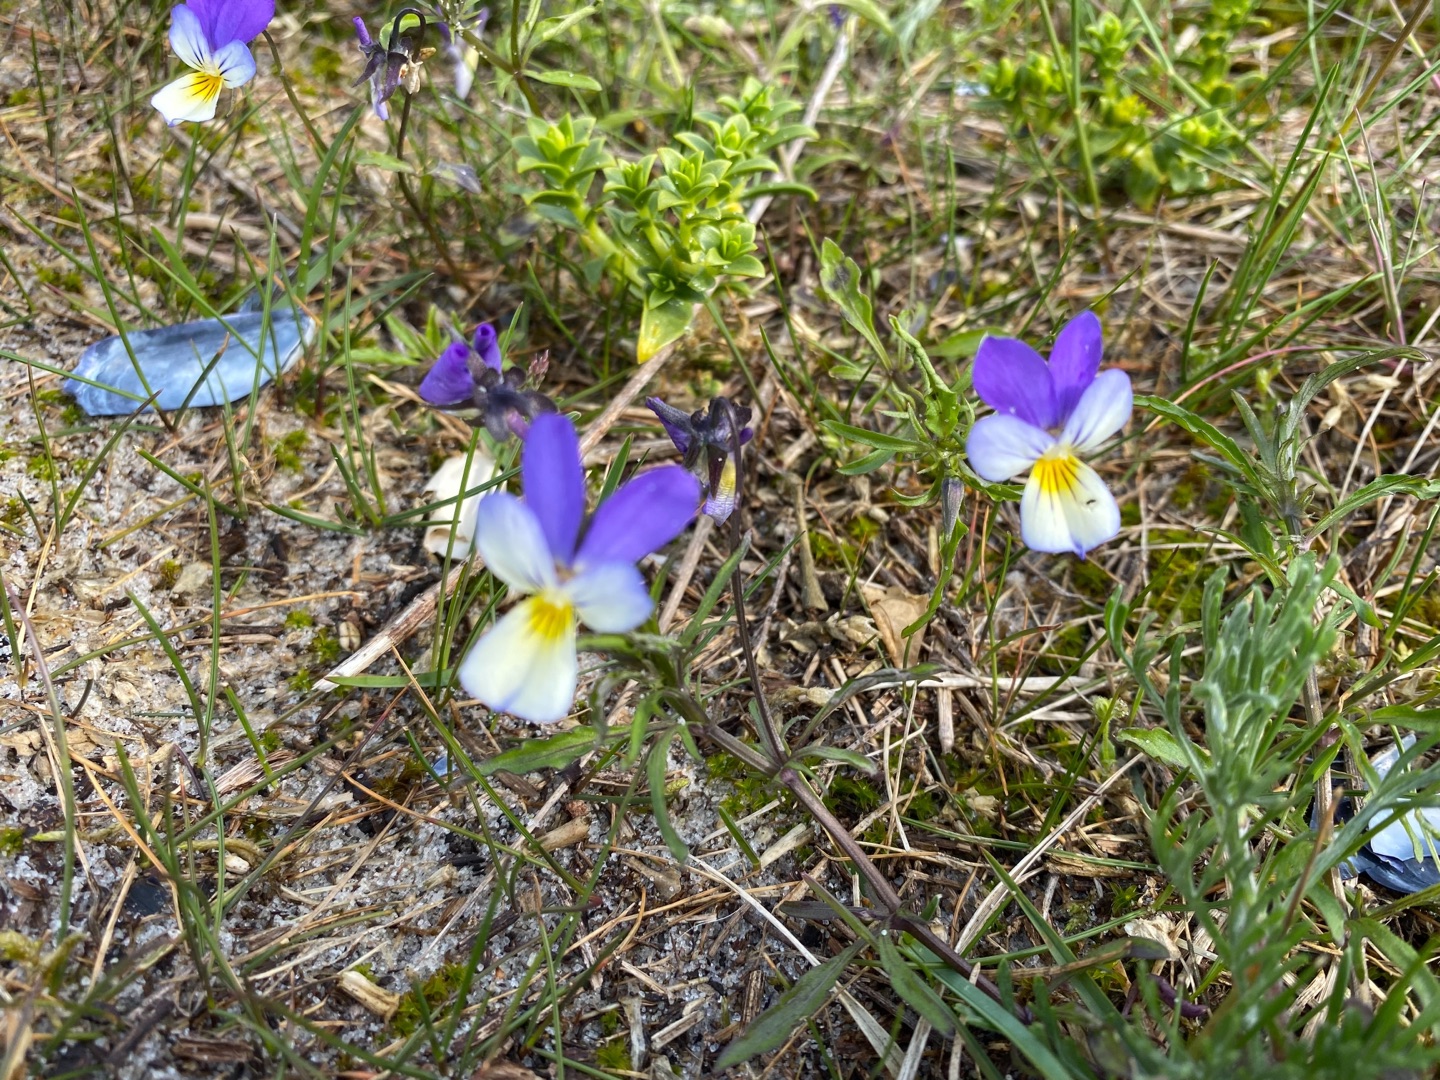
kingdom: Plantae
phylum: Tracheophyta
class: Magnoliopsida
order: Malpighiales
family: Violaceae
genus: Viola
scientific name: Viola tricolor
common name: Stedmoderblomst
